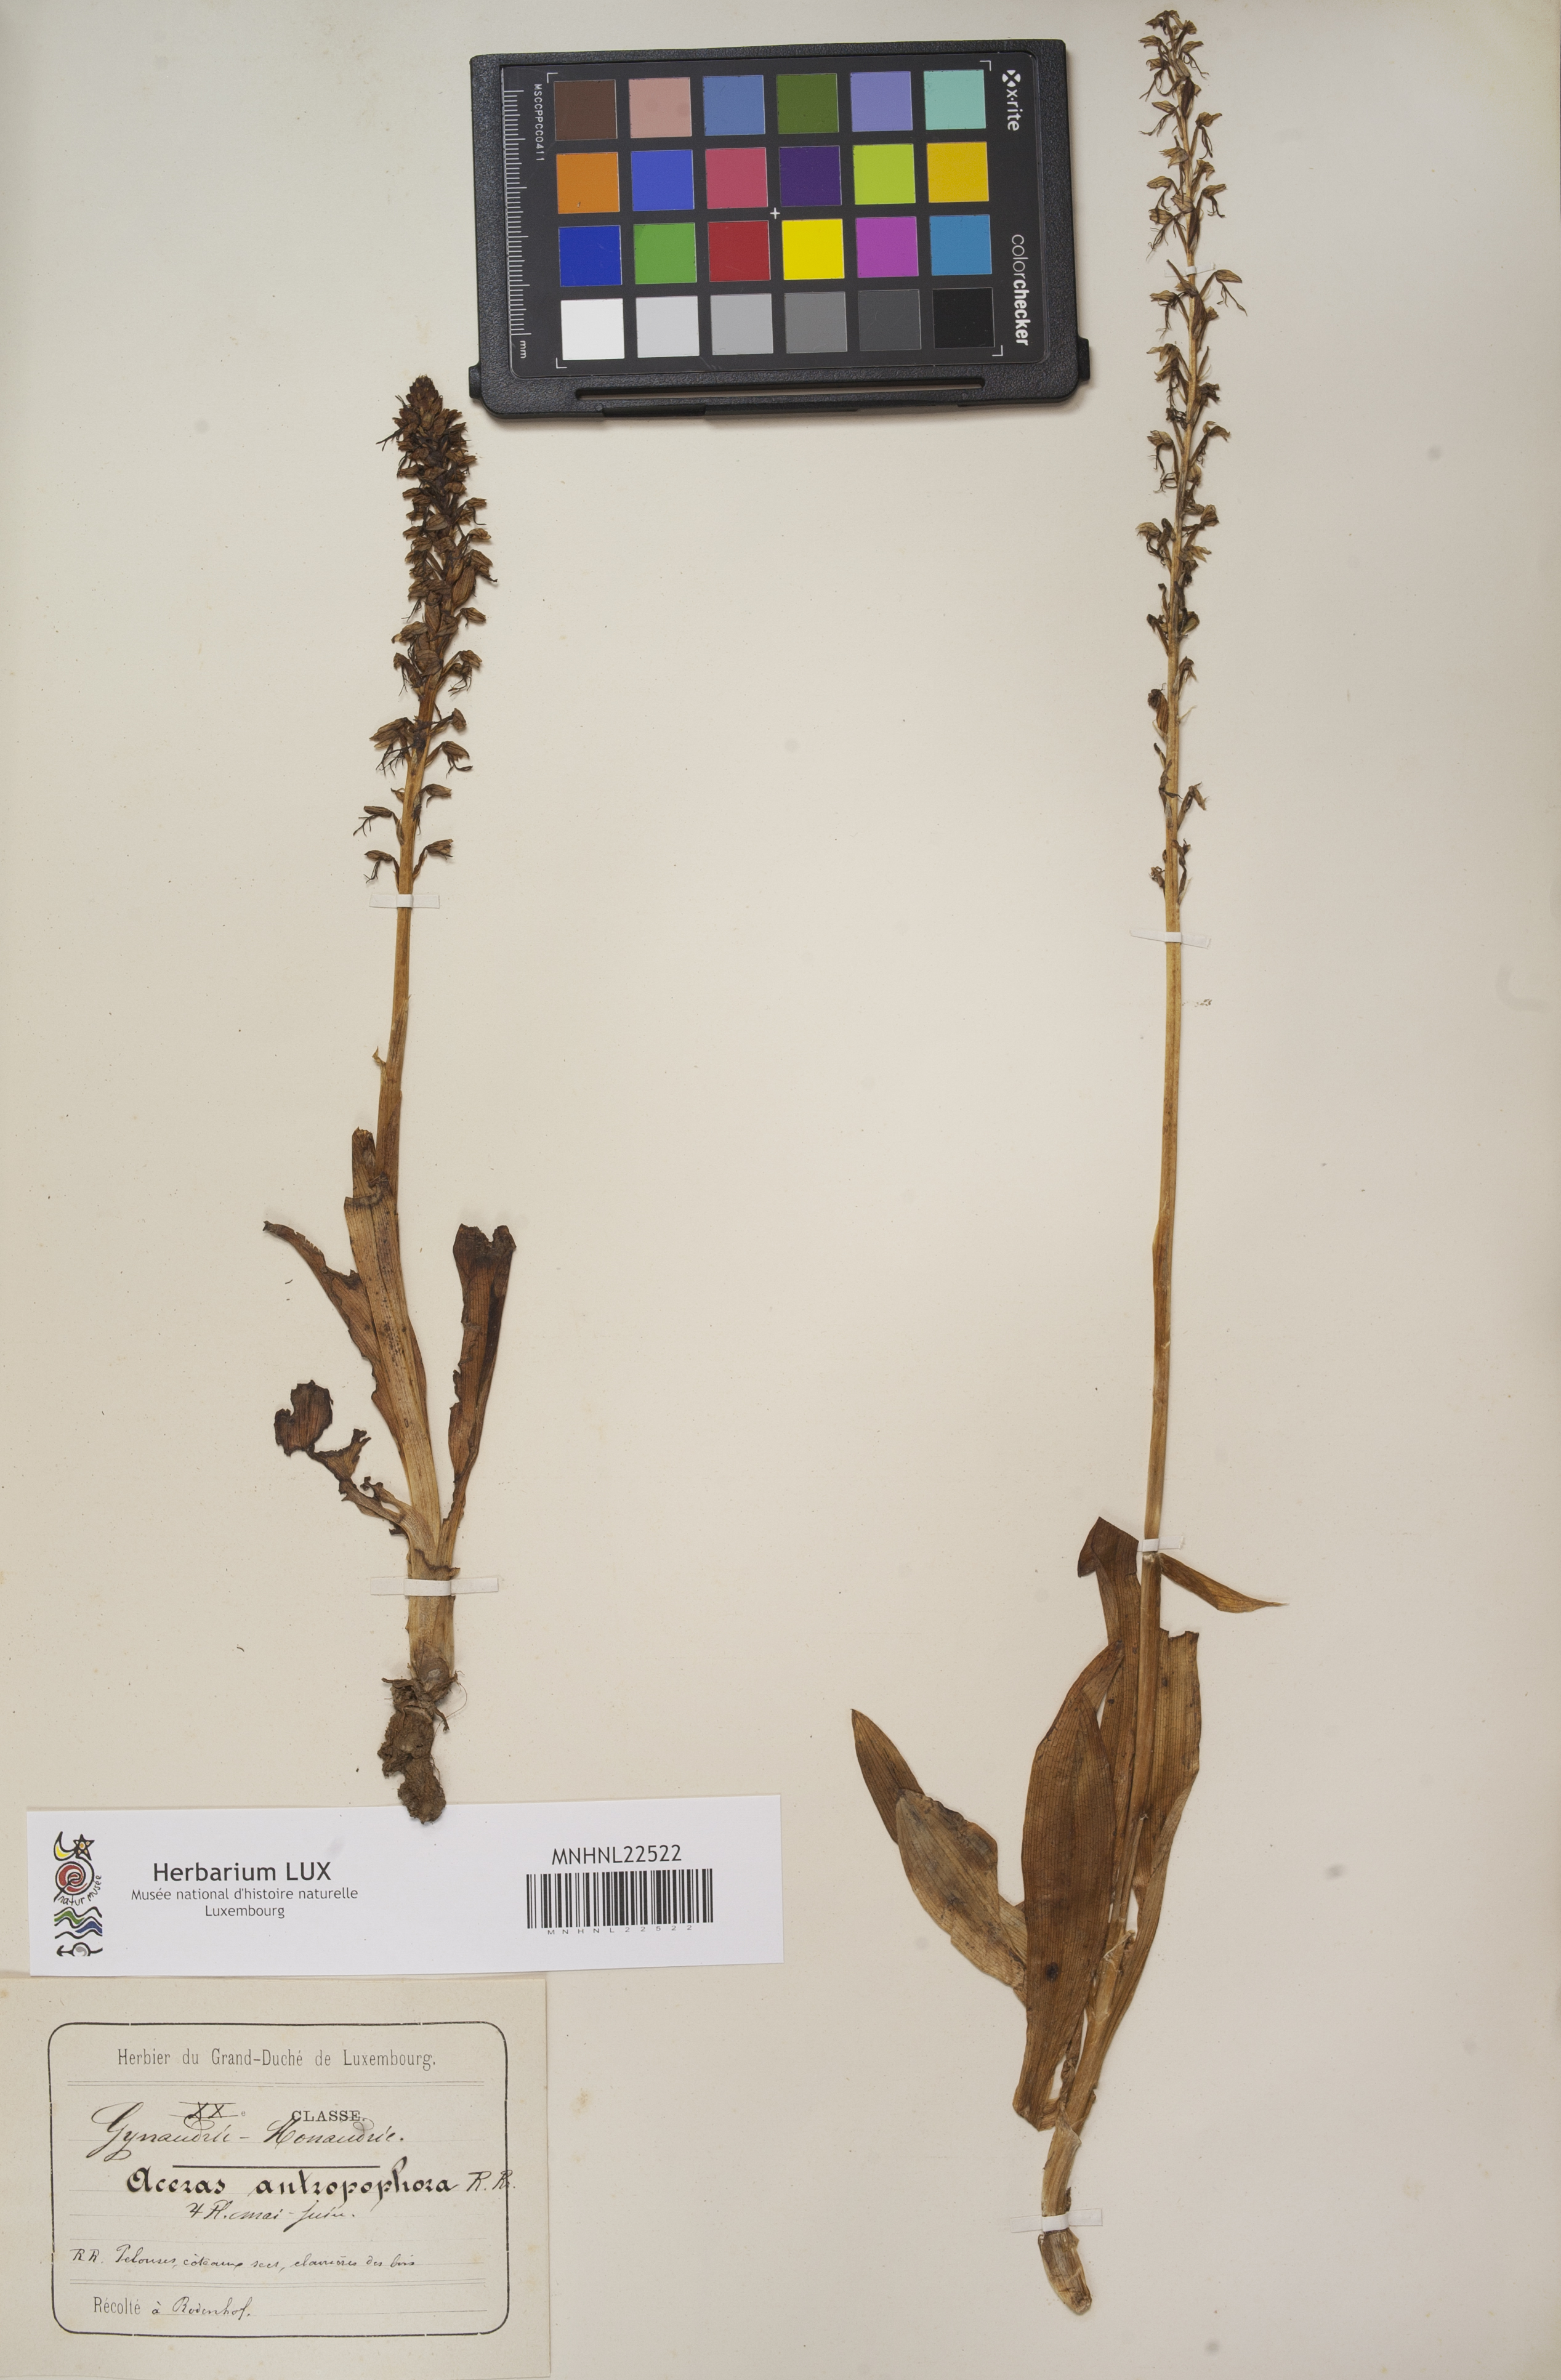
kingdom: Plantae
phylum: Tracheophyta
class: Liliopsida
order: Asparagales
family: Orchidaceae
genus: Orchis
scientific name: Orchis anthropophora
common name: Man orchid
